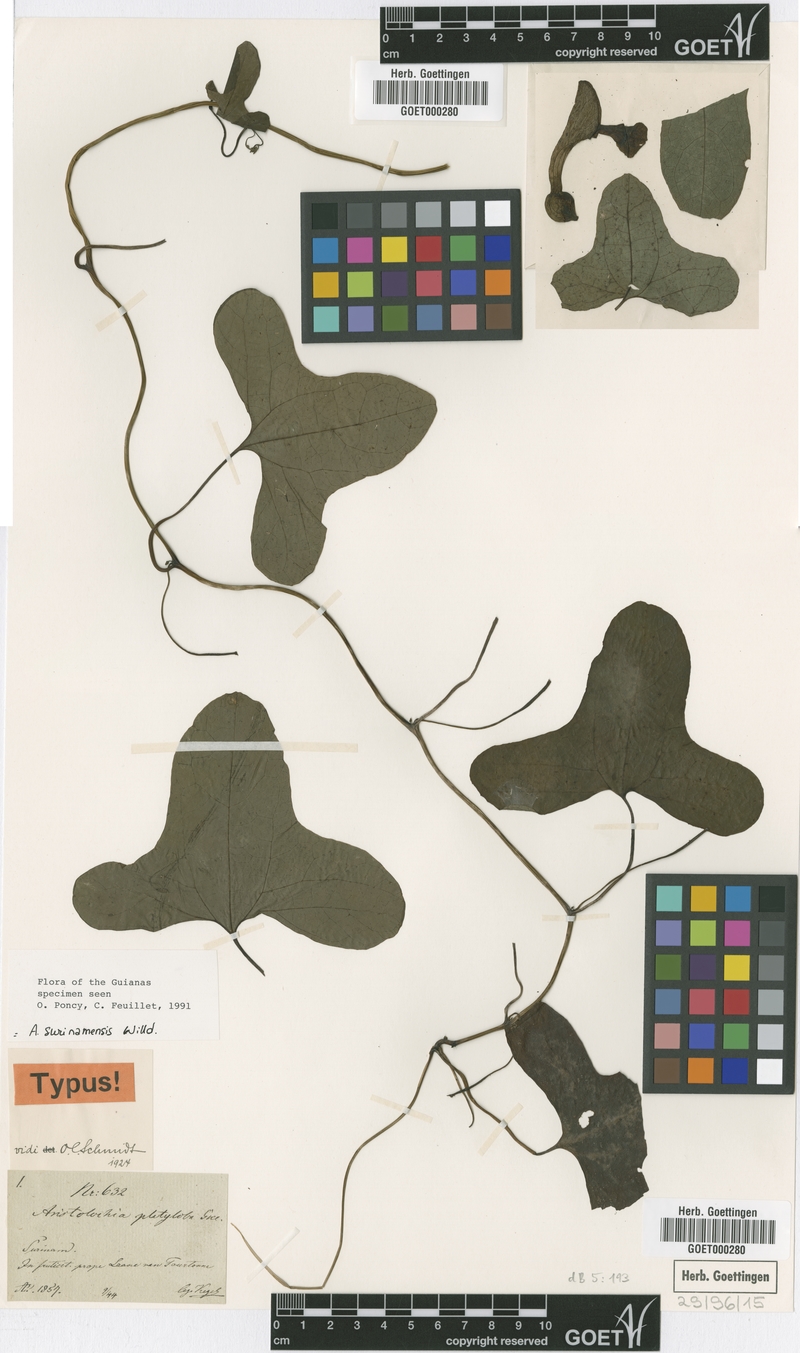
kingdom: Plantae
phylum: Tracheophyta
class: Magnoliopsida
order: Piperales
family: Aristolochiaceae
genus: Aristolochia
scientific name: Aristolochia surinamensis
